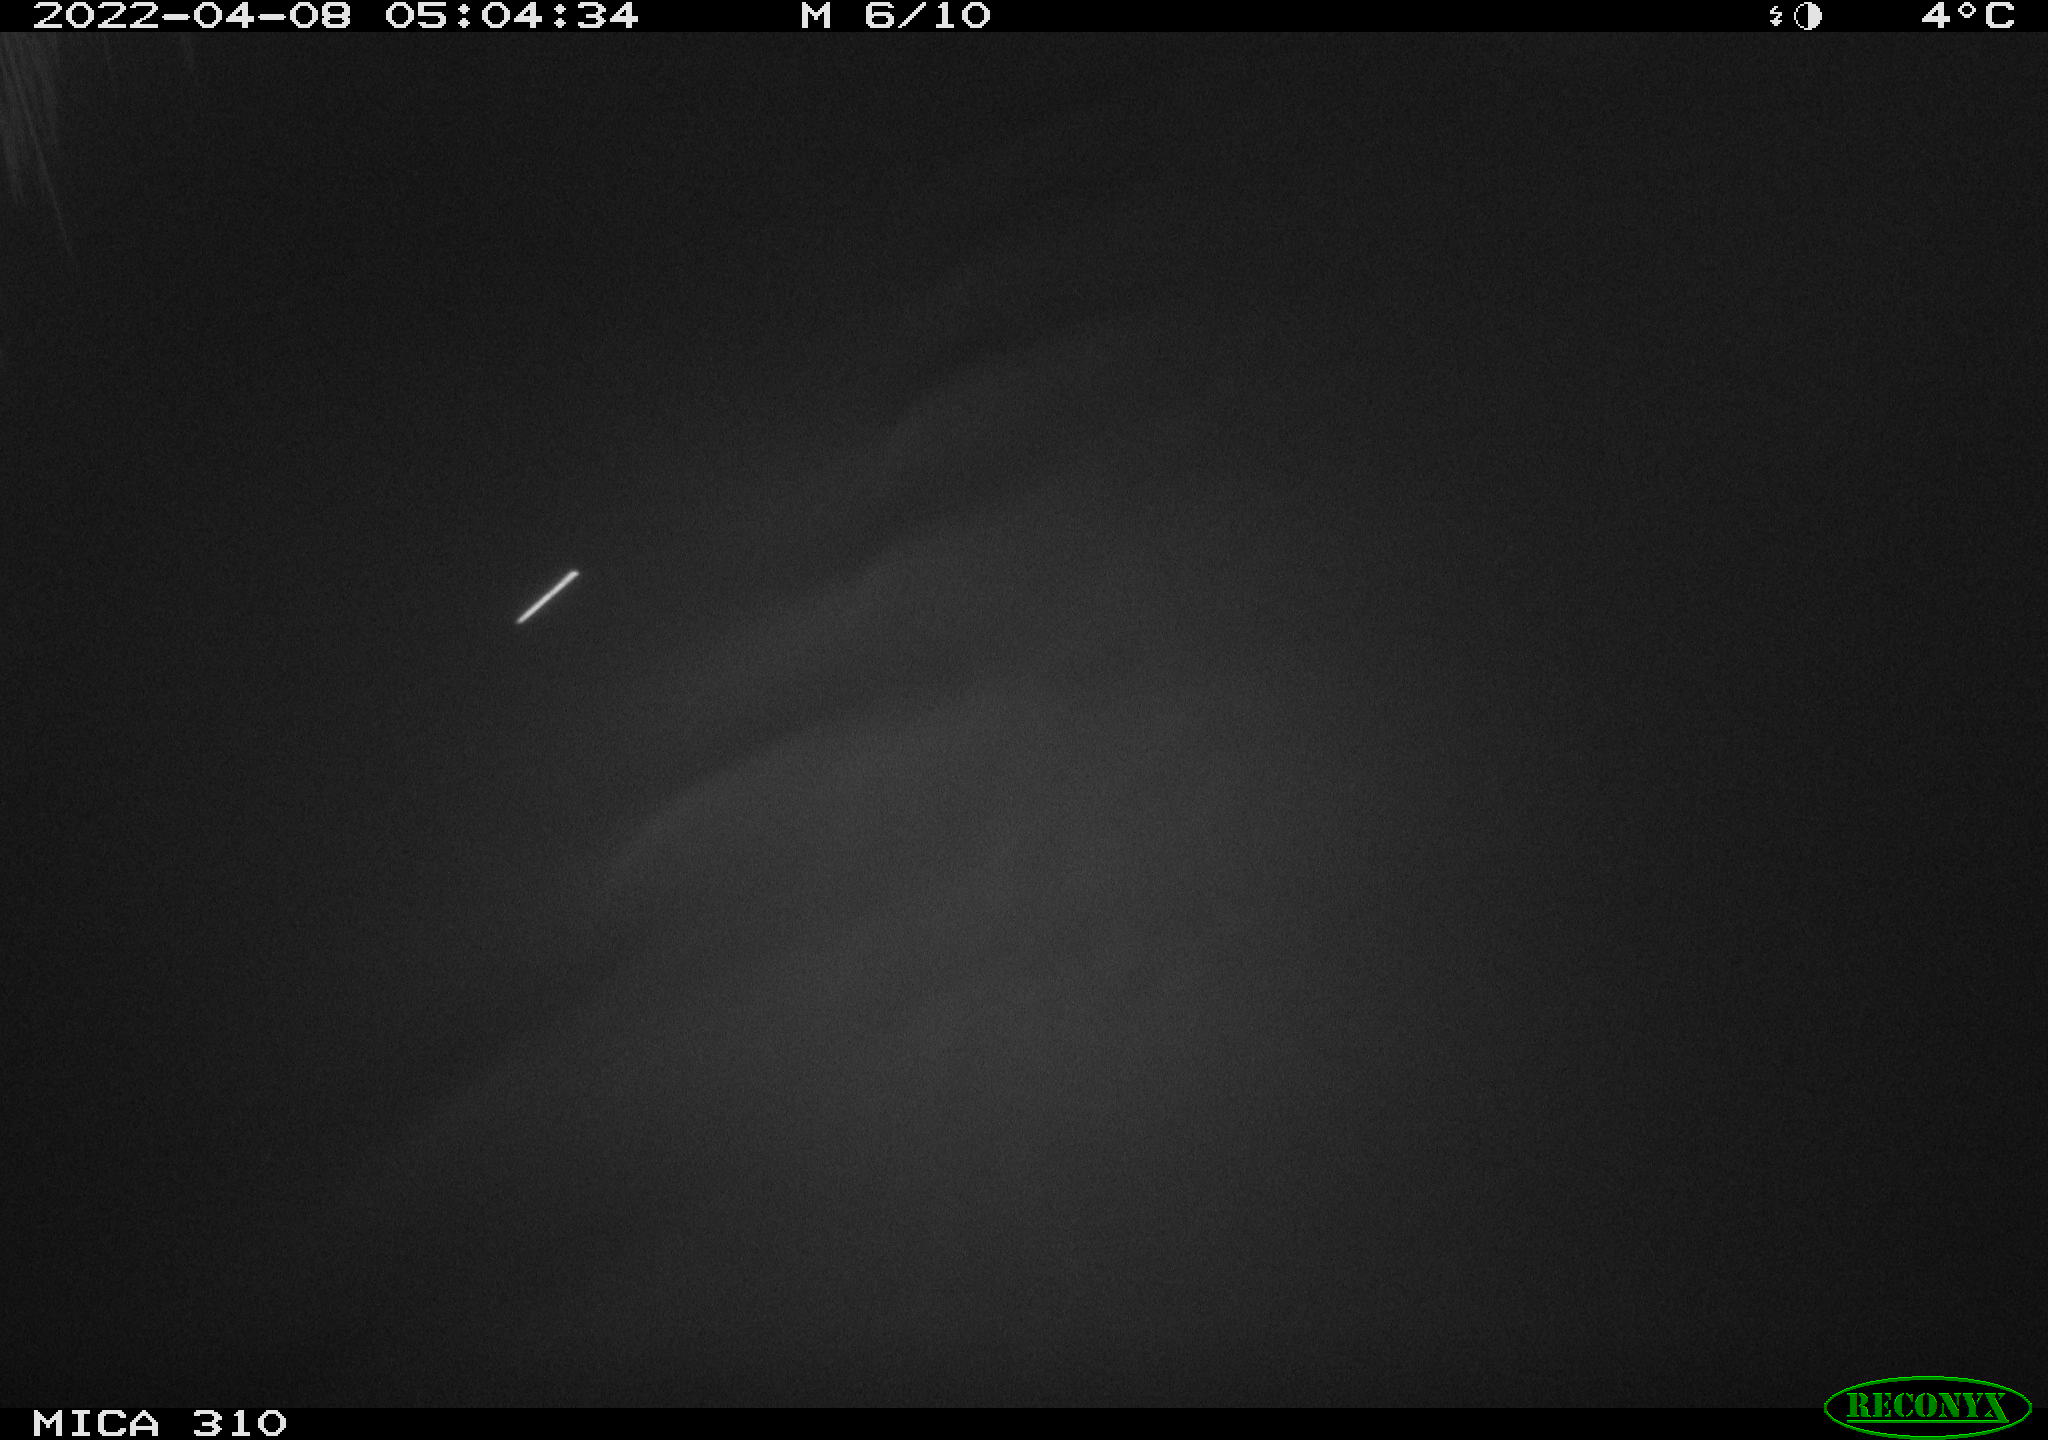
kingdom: Animalia
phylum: Chordata
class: Aves
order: Anseriformes
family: Anatidae
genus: Anas
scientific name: Anas platyrhynchos
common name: Mallard
